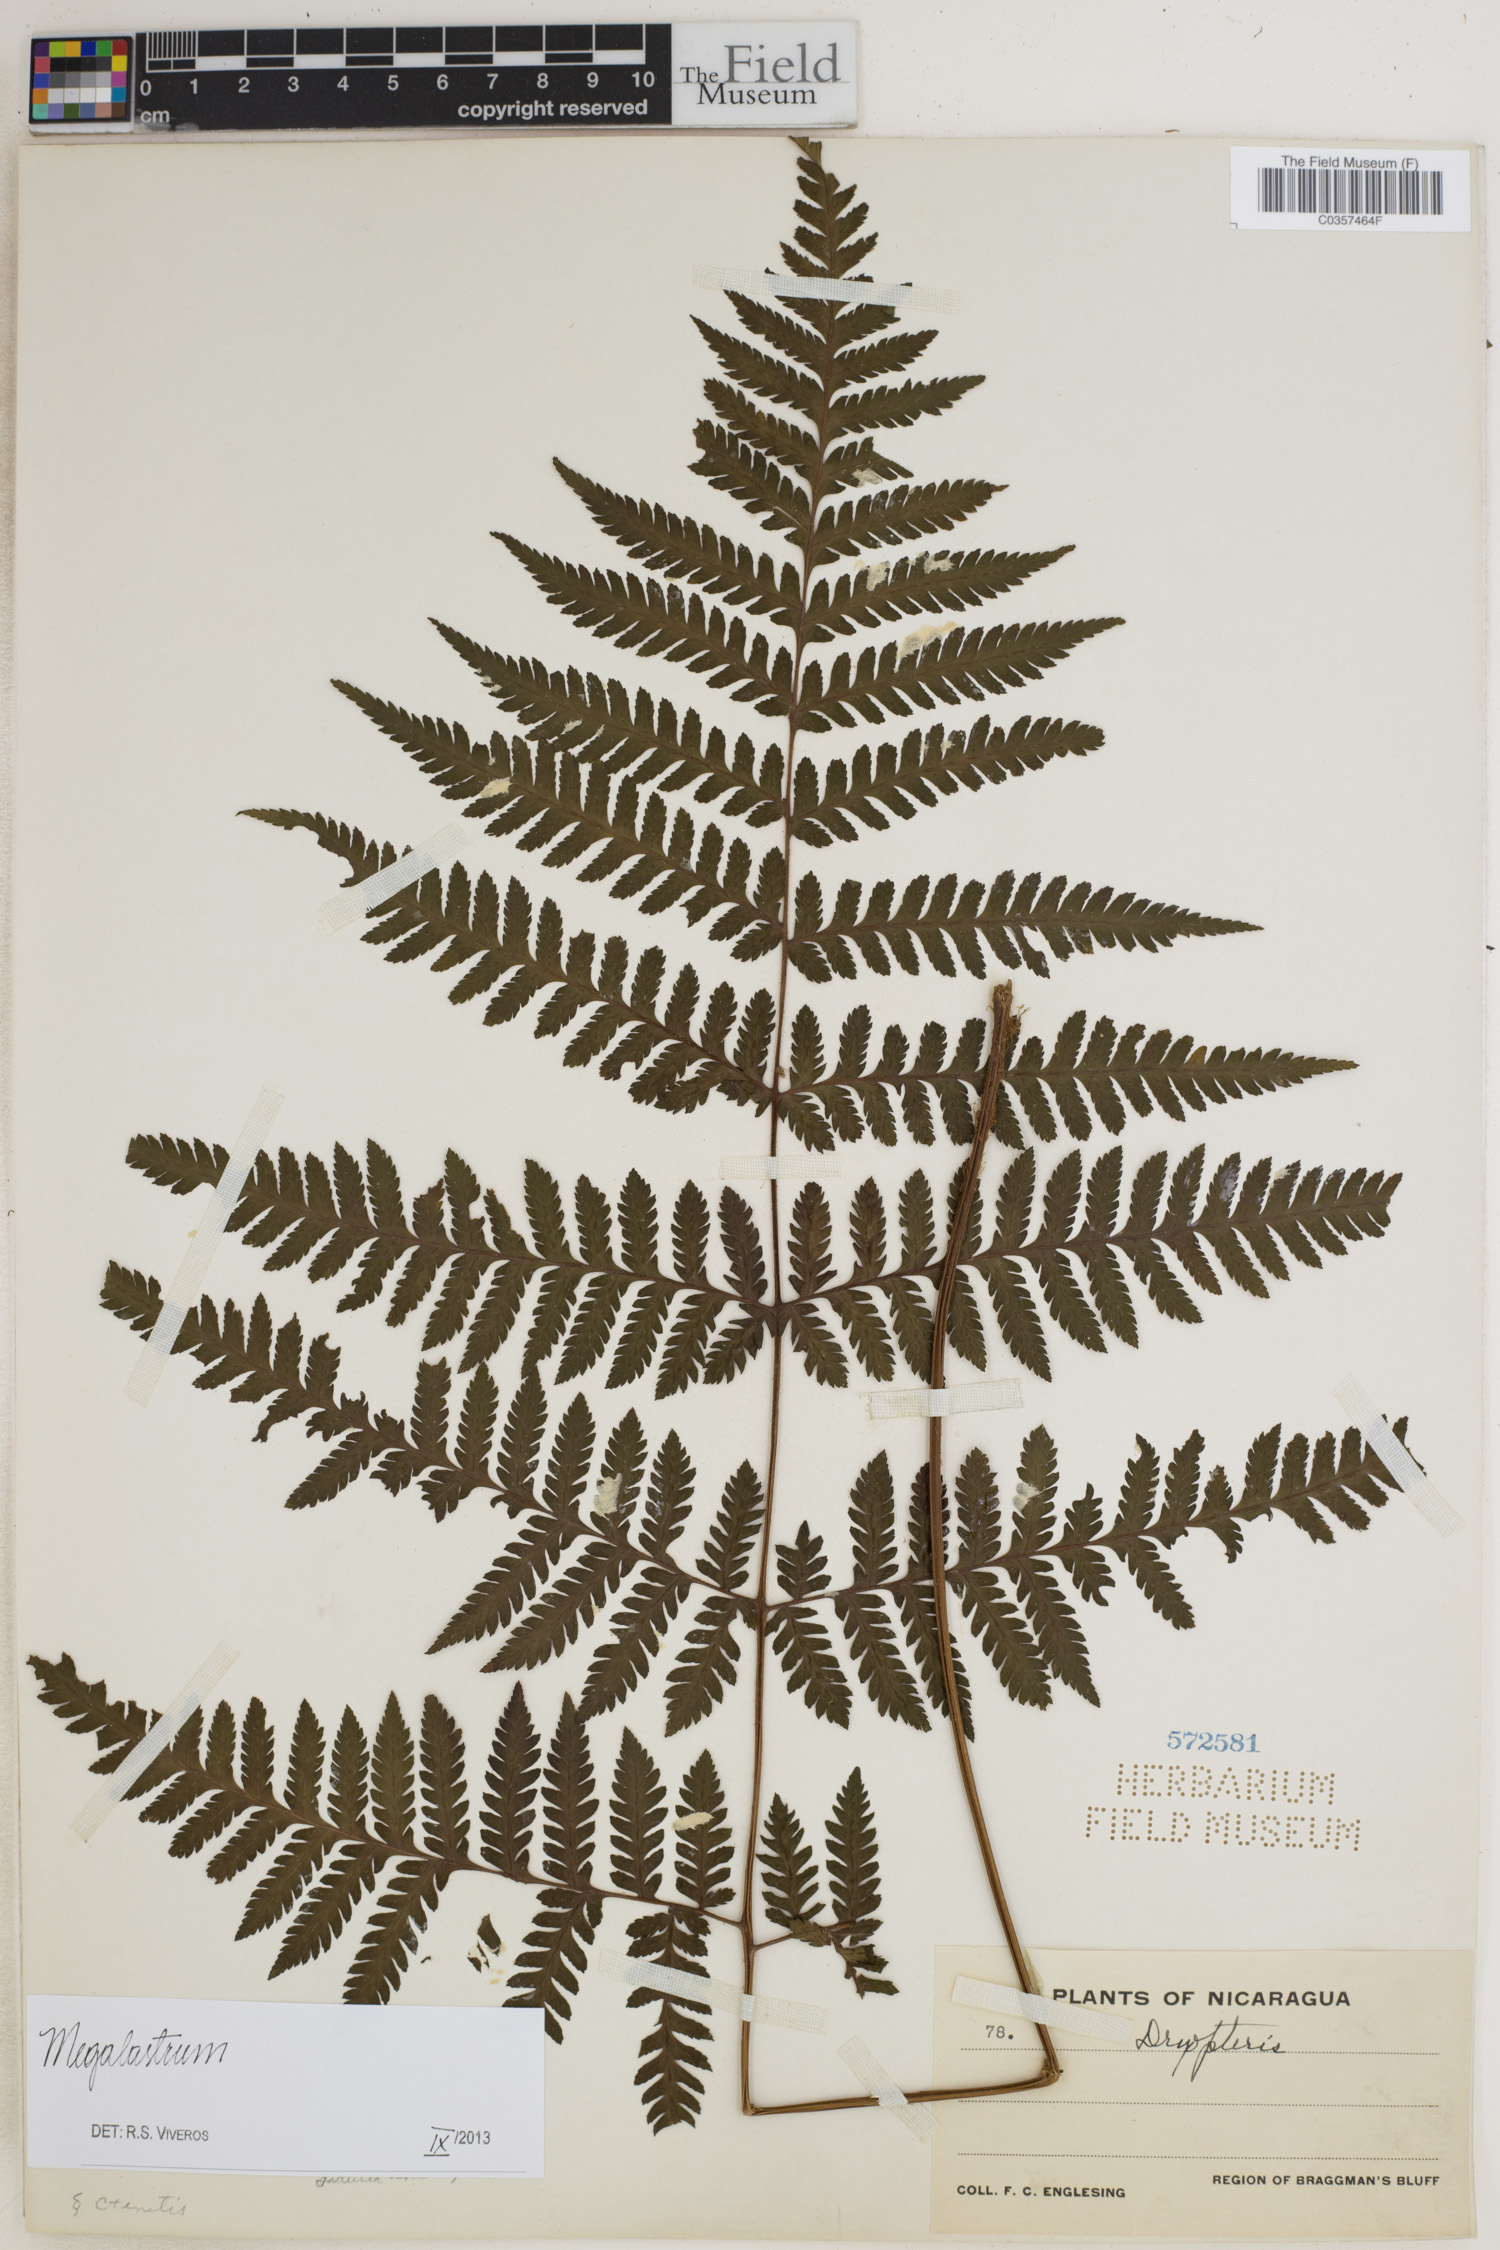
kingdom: Plantae
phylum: Tracheophyta
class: Polypodiopsida
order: Polypodiales
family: Dryopteridaceae
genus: Megalastrum
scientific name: Megalastrum
